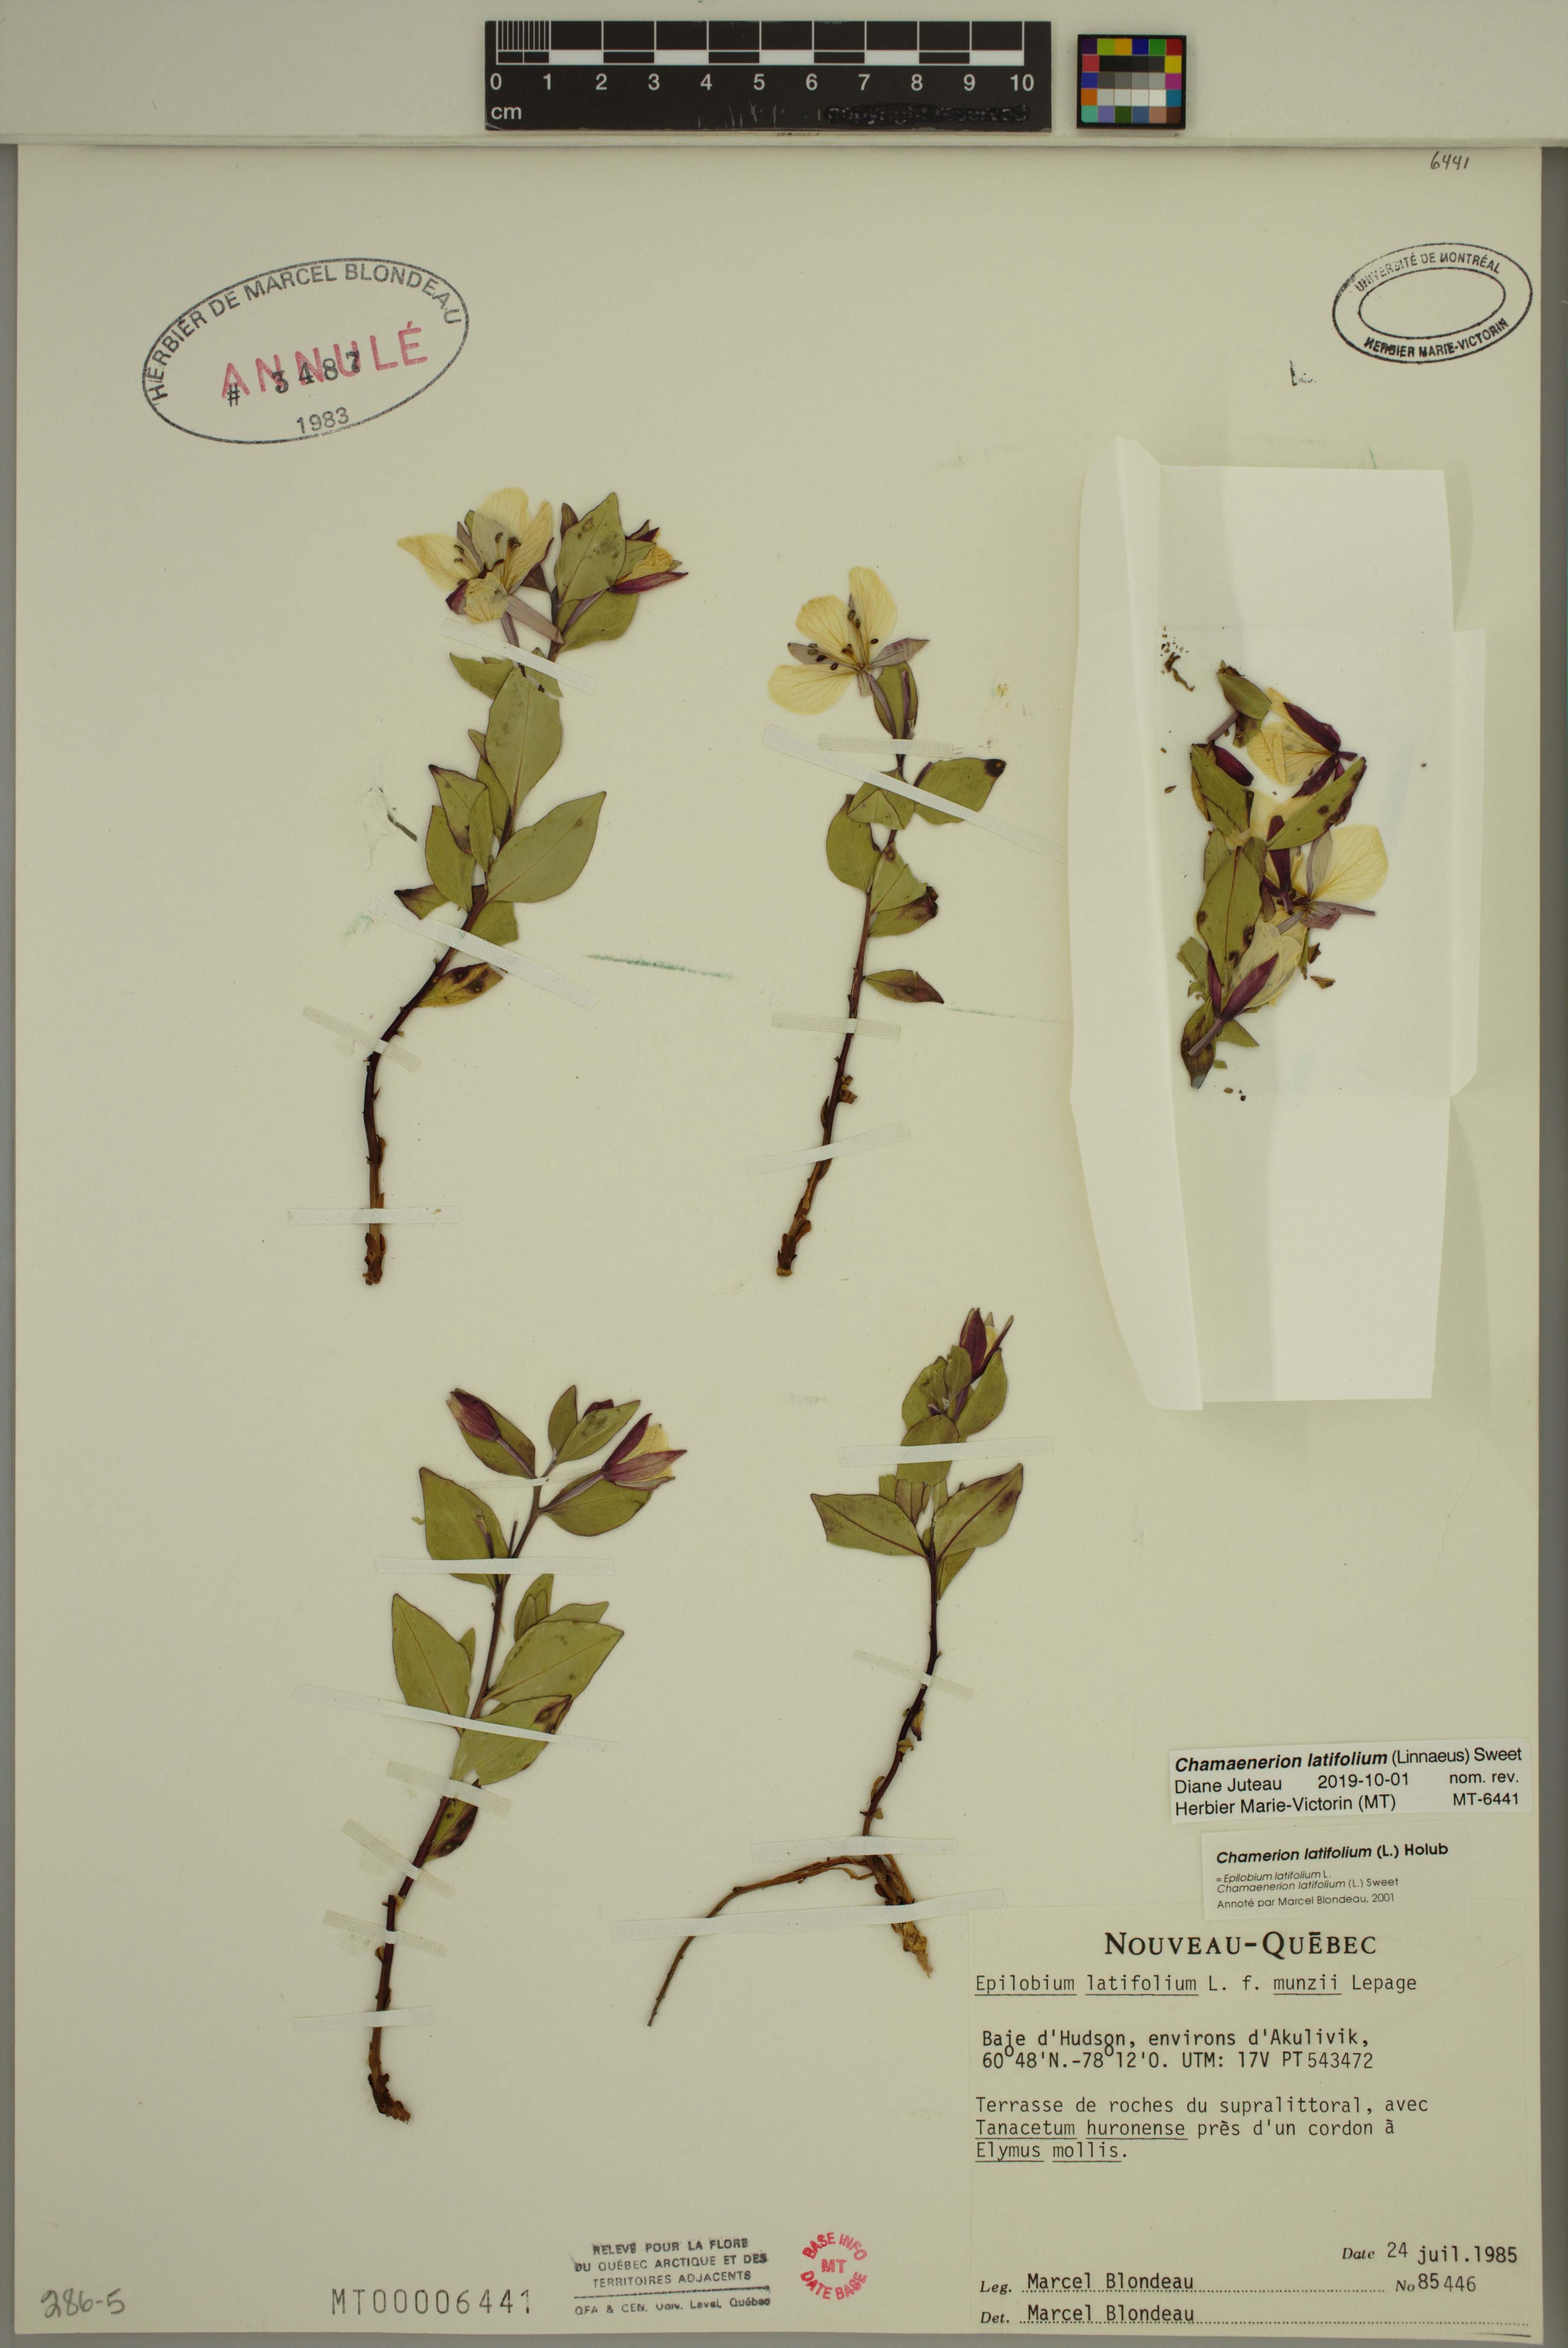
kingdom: Plantae
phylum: Tracheophyta
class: Magnoliopsida
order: Myrtales
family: Onagraceae
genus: Chamaenerion
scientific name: Chamaenerion latifolium
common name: Dwarf fireweed
